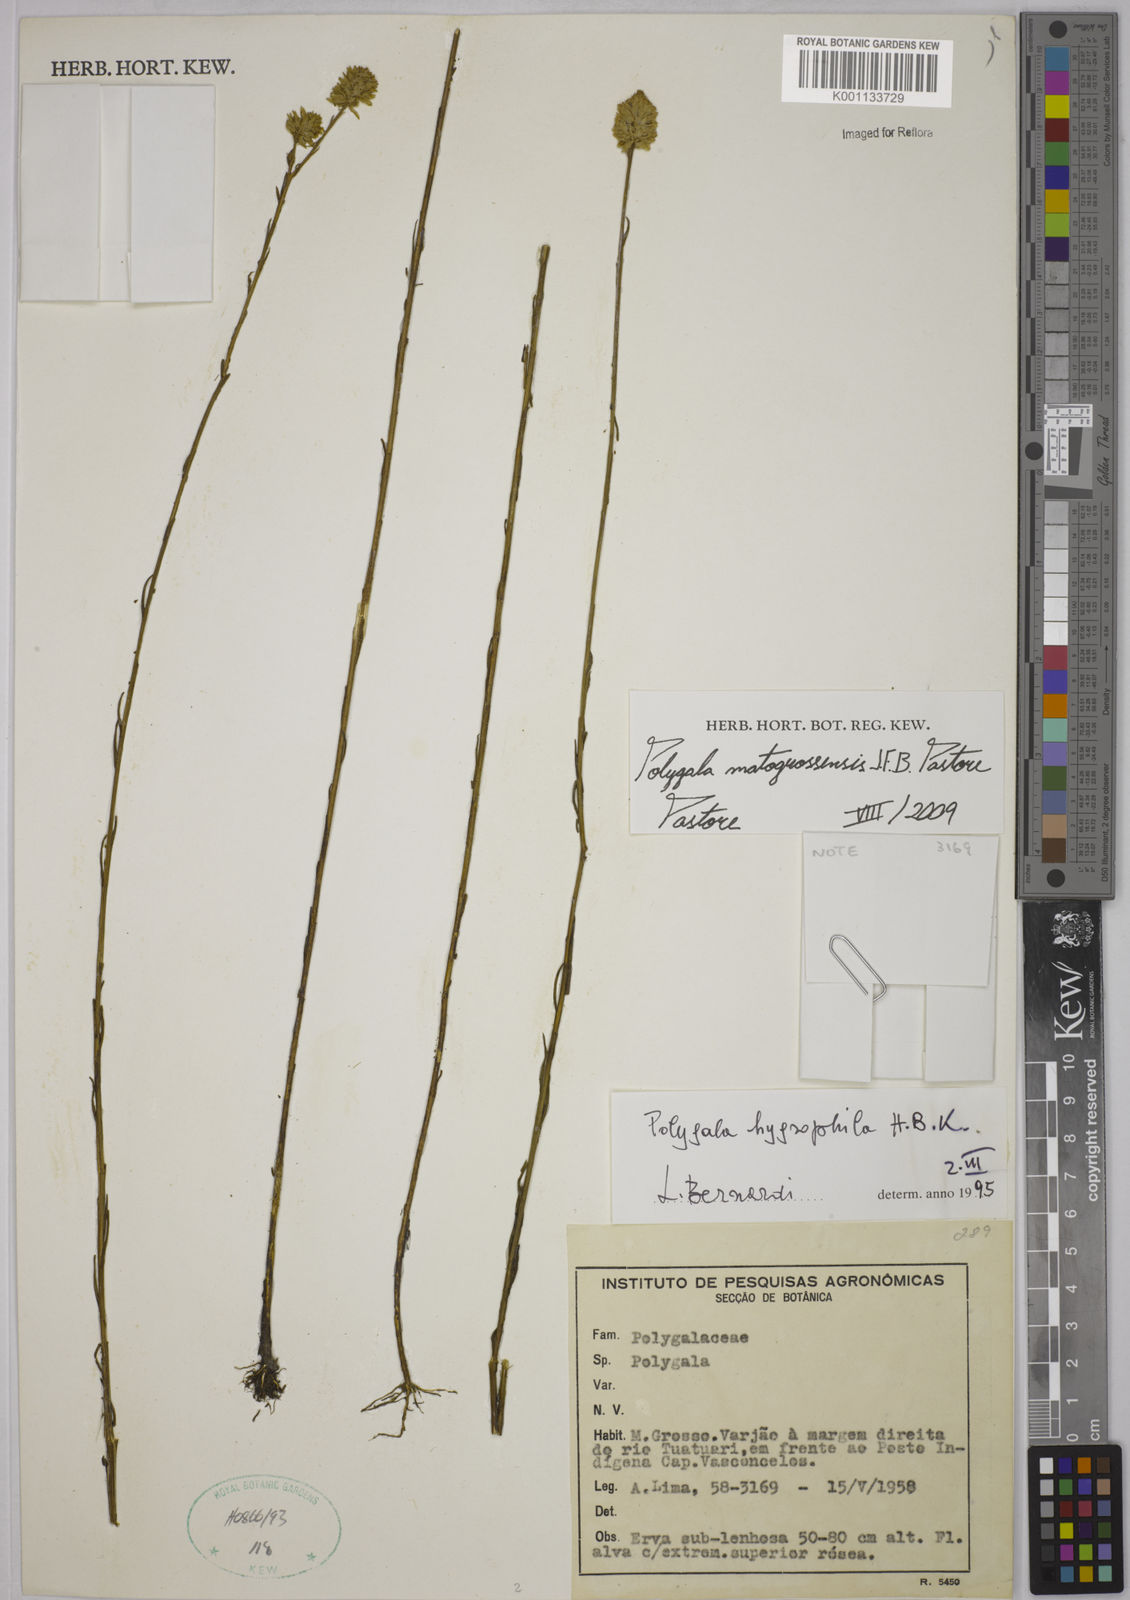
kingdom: Plantae
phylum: Tracheophyta
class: Magnoliopsida
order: Fabales
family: Polygalaceae
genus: Polygala
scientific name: Polygala matogrossensis
